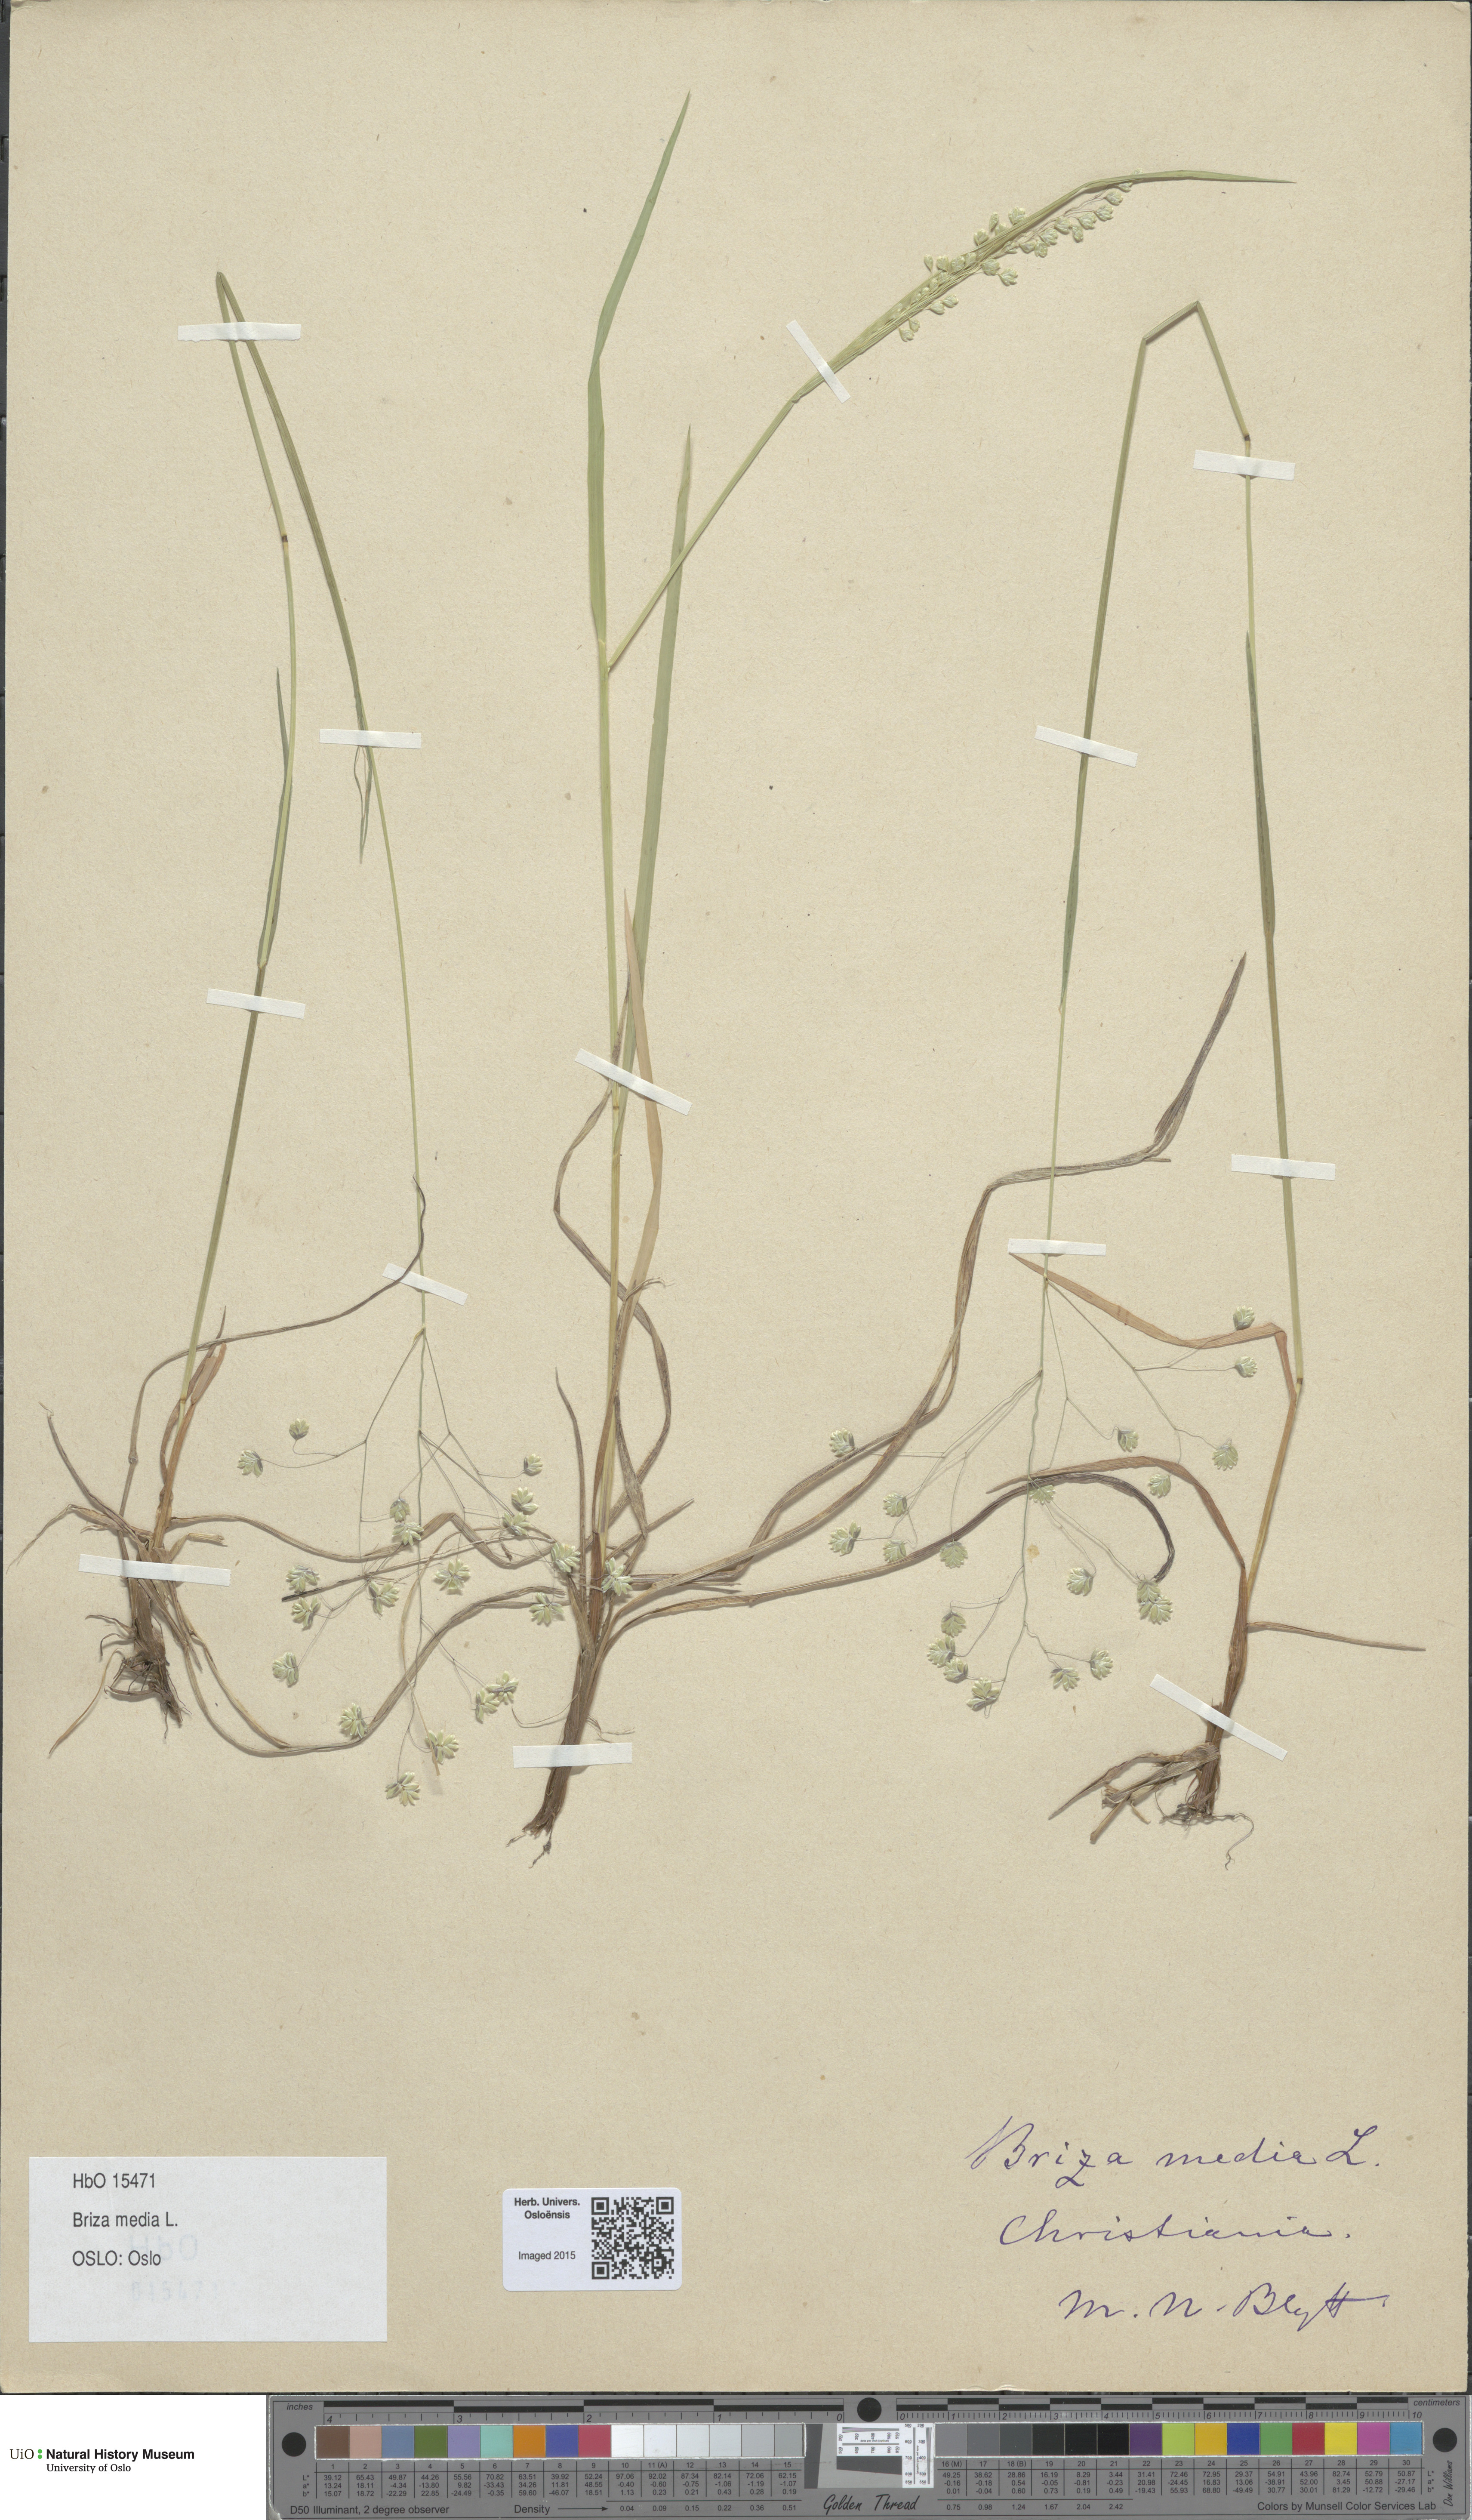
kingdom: Plantae
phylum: Tracheophyta
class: Liliopsida
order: Poales
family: Poaceae
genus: Briza
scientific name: Briza media
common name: Quaking grass
